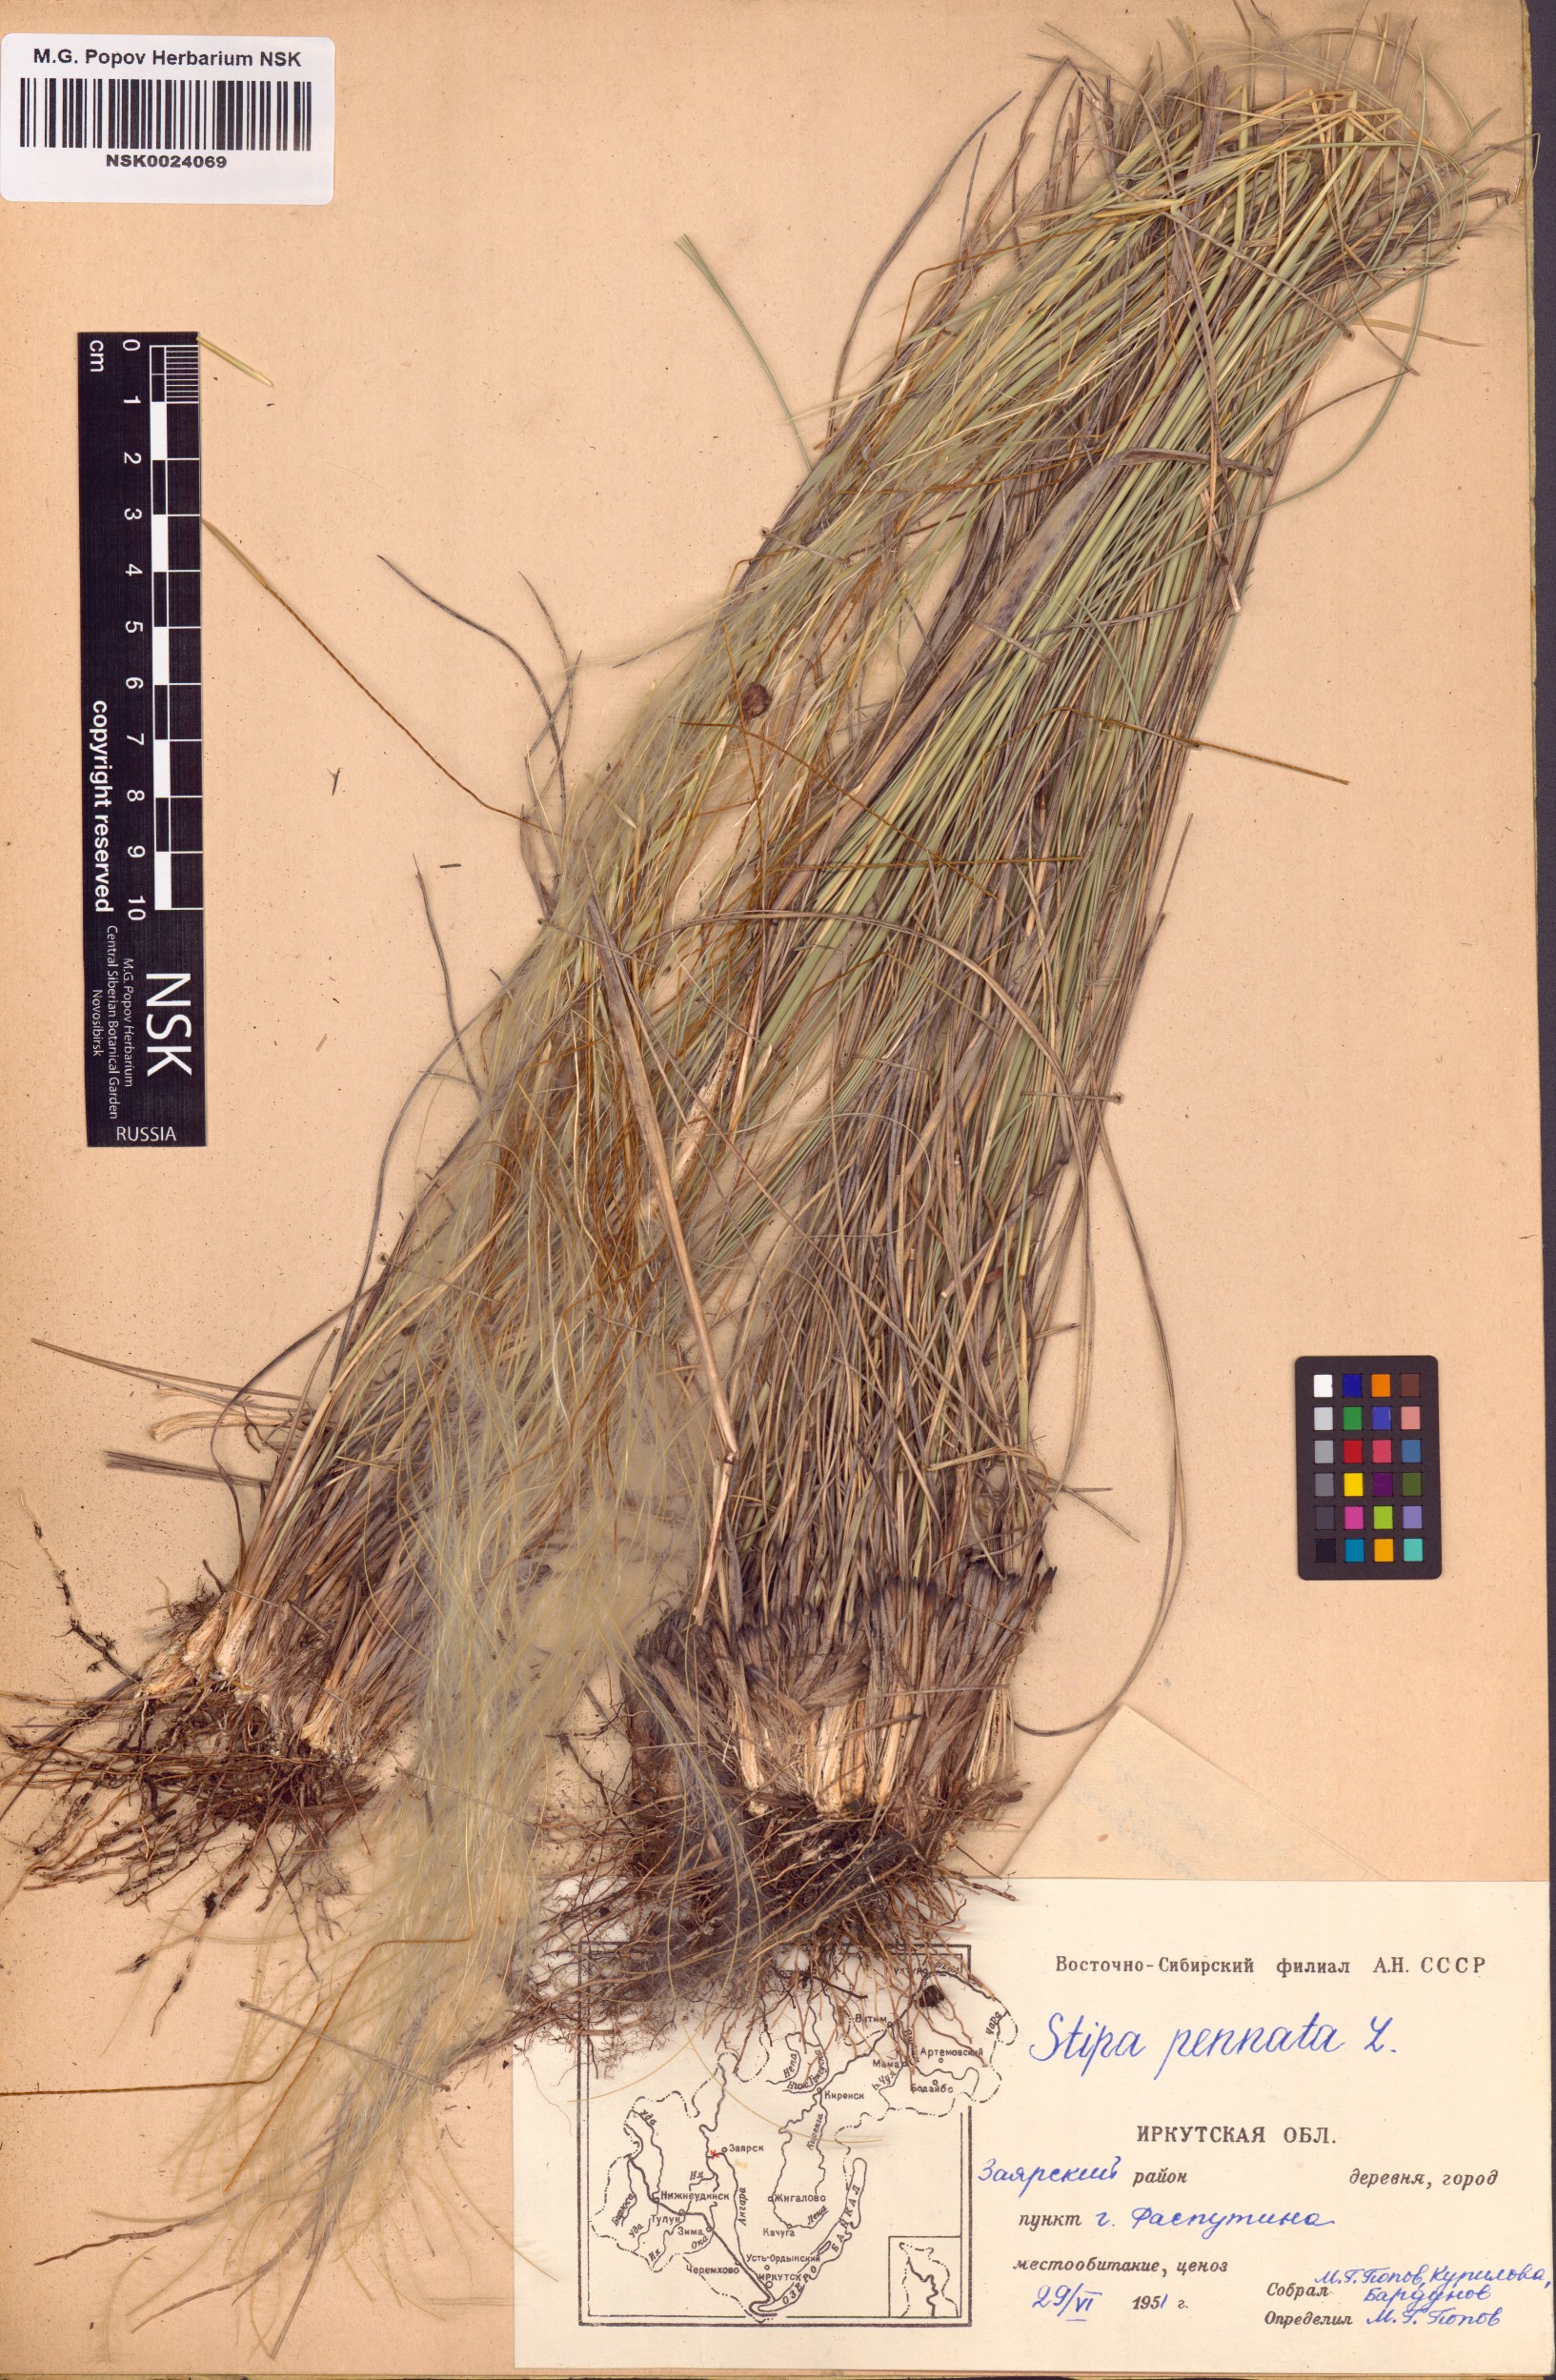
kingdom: Plantae
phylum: Tracheophyta
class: Liliopsida
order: Poales
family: Poaceae
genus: Stipa
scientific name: Stipa pennata
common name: European feather grass
